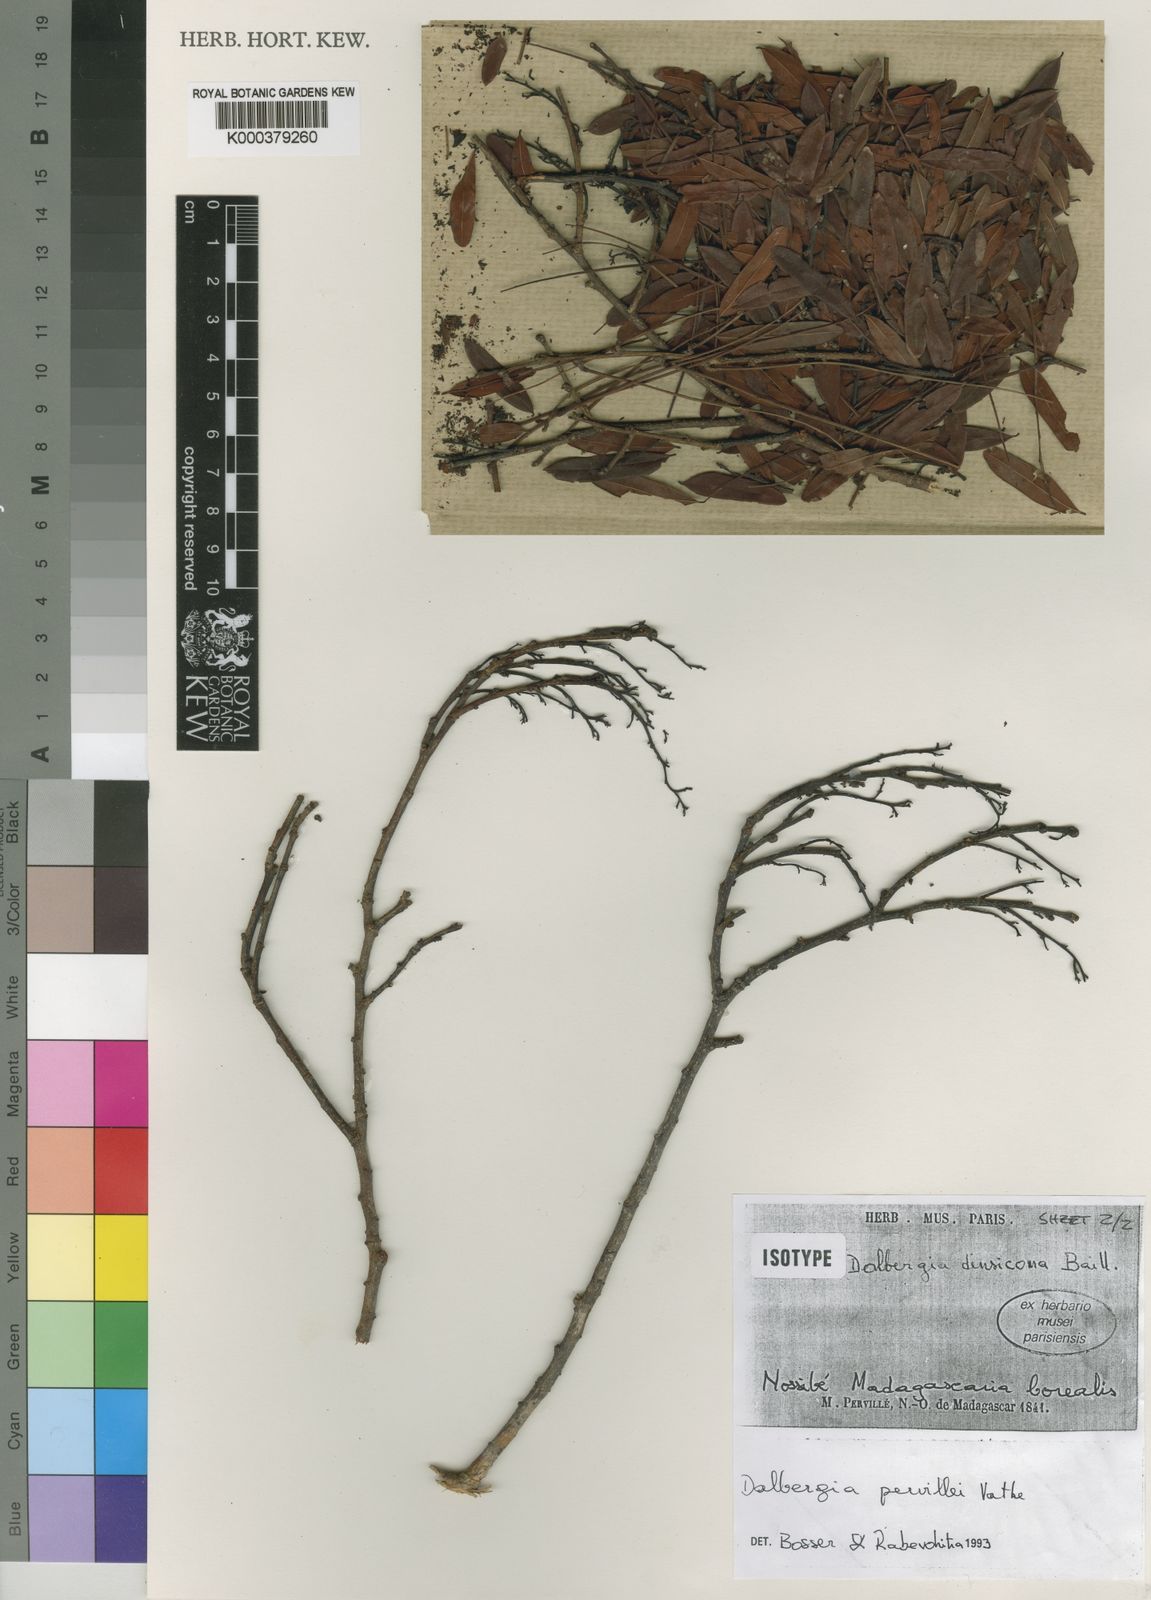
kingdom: Plantae
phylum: Tracheophyta
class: Magnoliopsida
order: Fabales
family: Fabaceae
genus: Dalbergia
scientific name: Dalbergia pervillei
